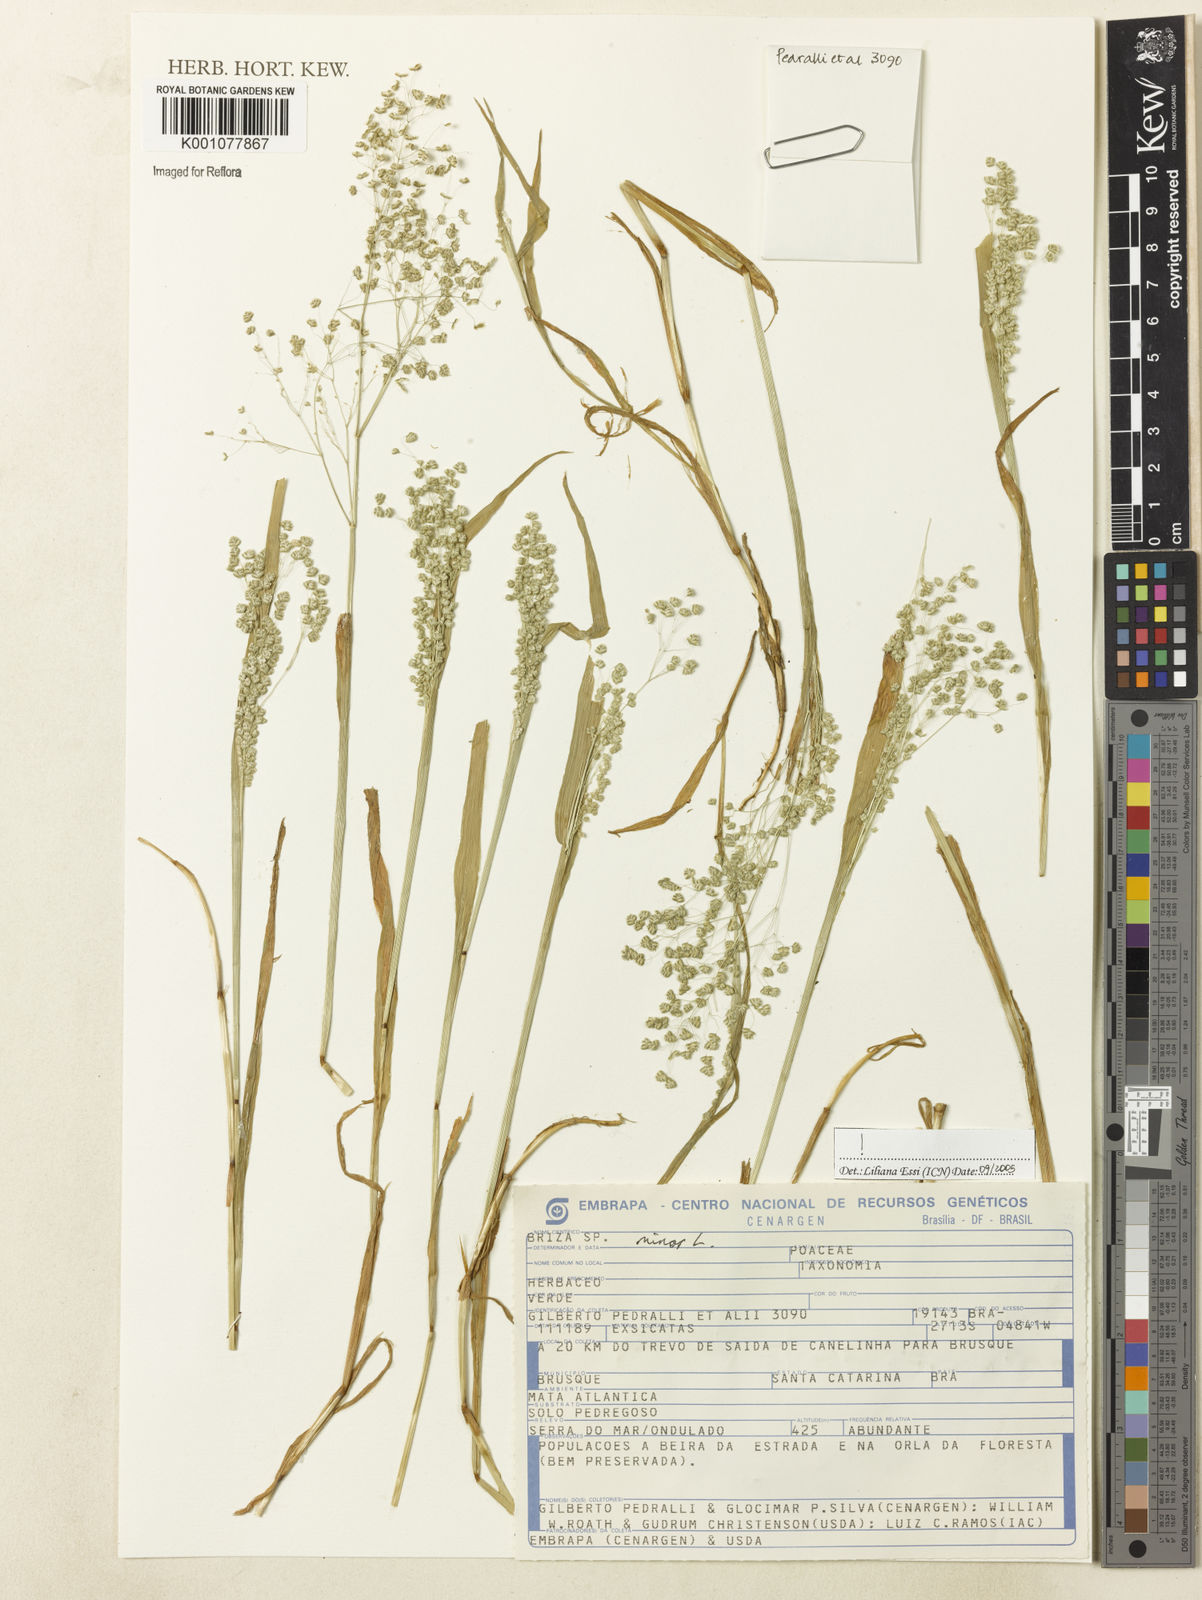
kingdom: Plantae
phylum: Tracheophyta
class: Liliopsida
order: Poales
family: Poaceae
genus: Briza
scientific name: Briza minor
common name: Lesser quaking-grass
